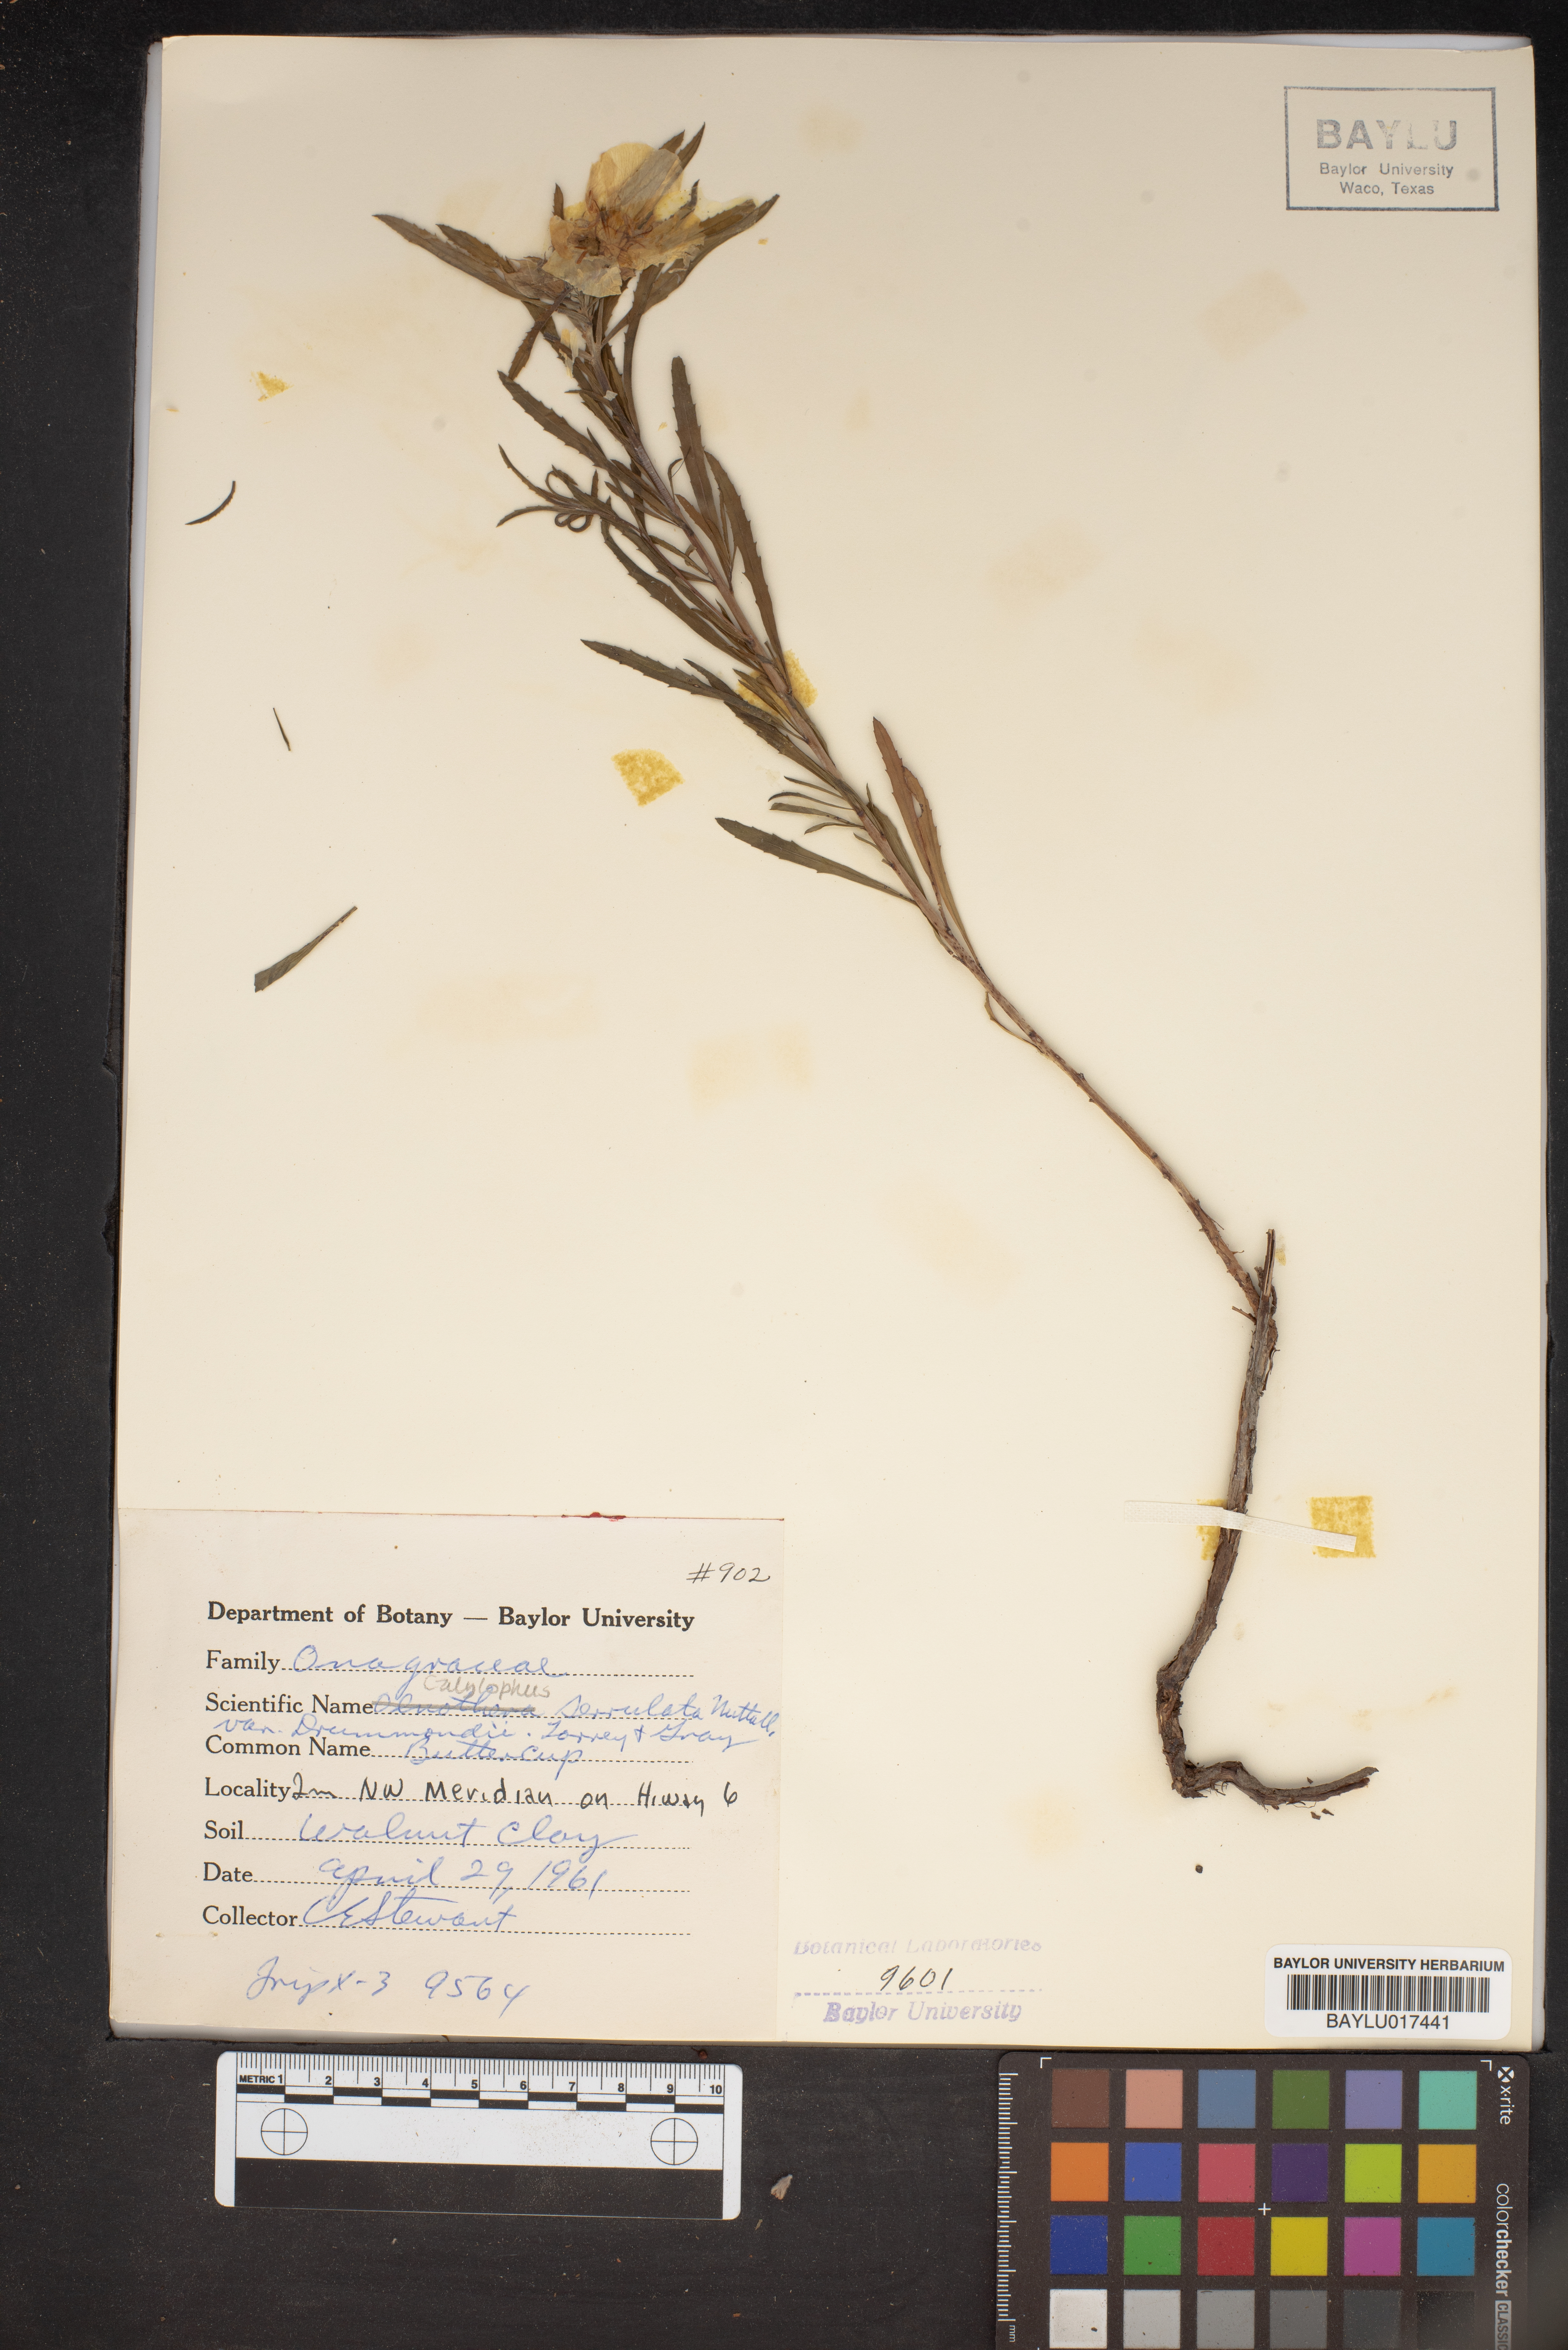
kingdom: Plantae
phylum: Tracheophyta
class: Magnoliopsida
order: Myrtales
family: Onagraceae
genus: Oenothera
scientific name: Oenothera serrulata
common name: Half-shrub calylophus
